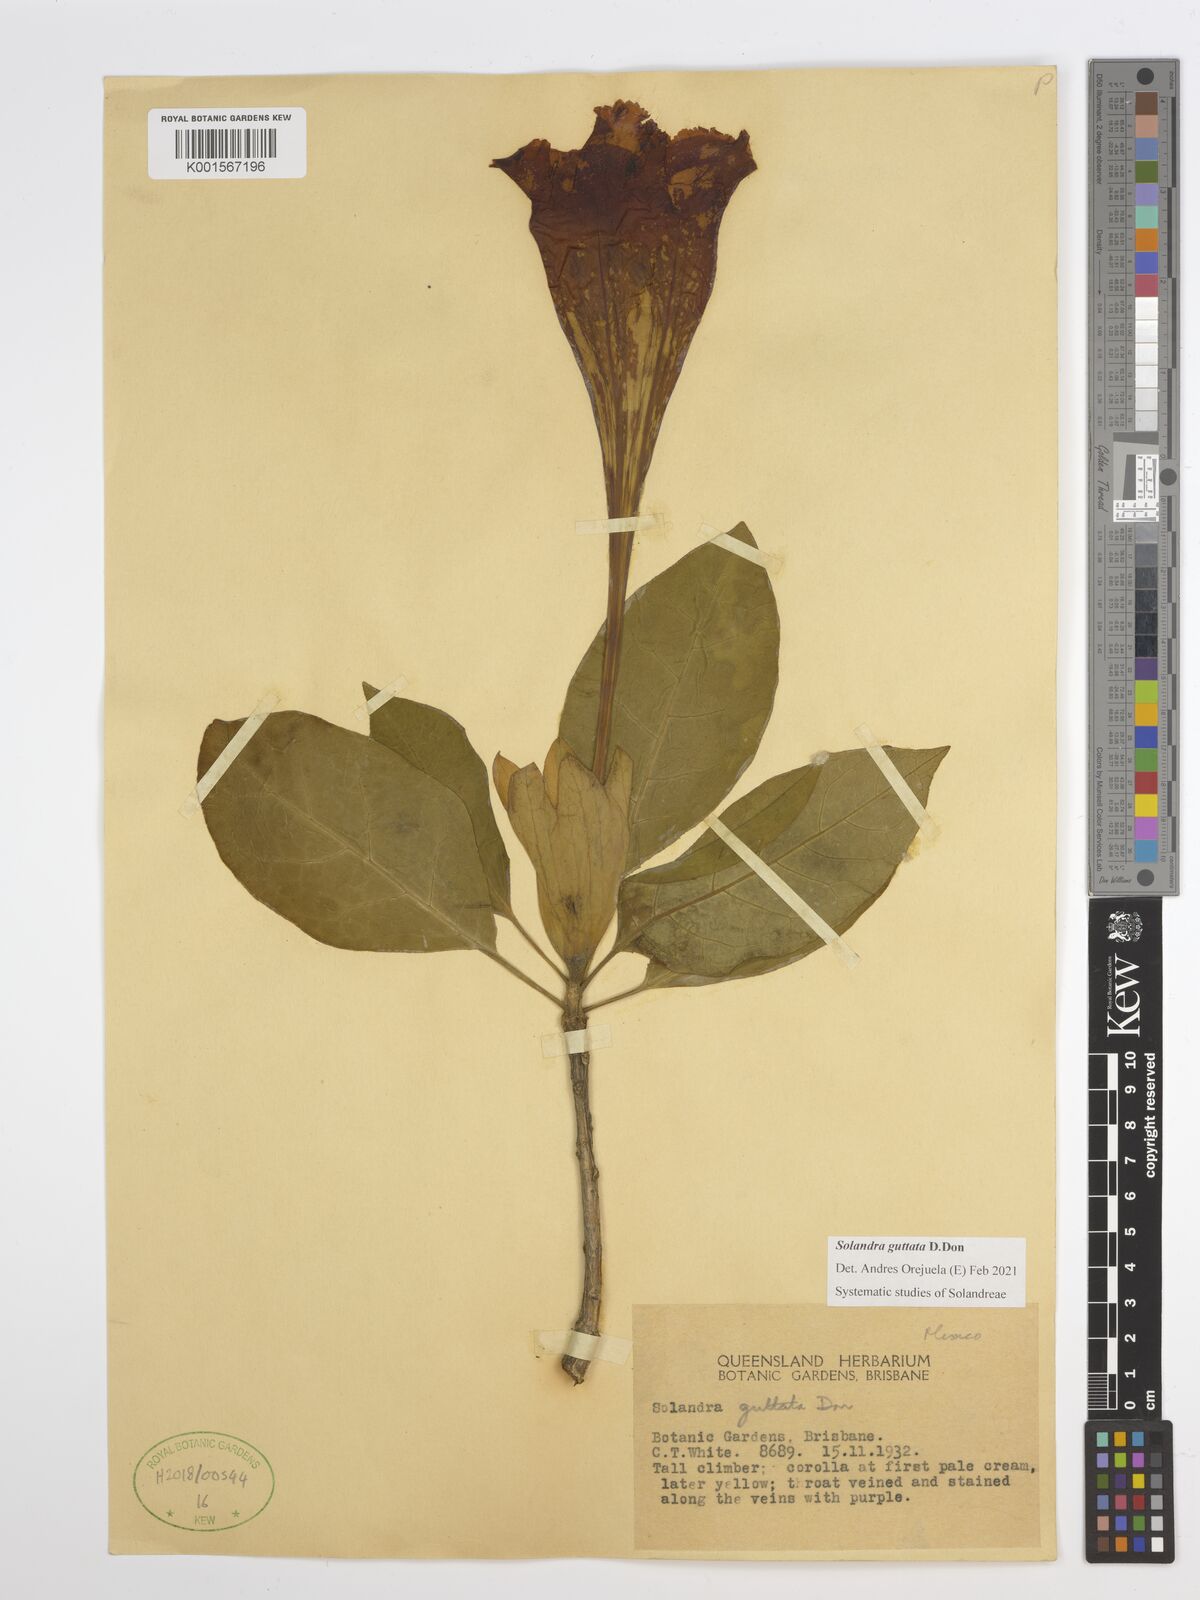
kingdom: Plantae
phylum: Tracheophyta
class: Magnoliopsida
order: Solanales
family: Solanaceae
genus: Solandra
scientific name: Solandra guttata
